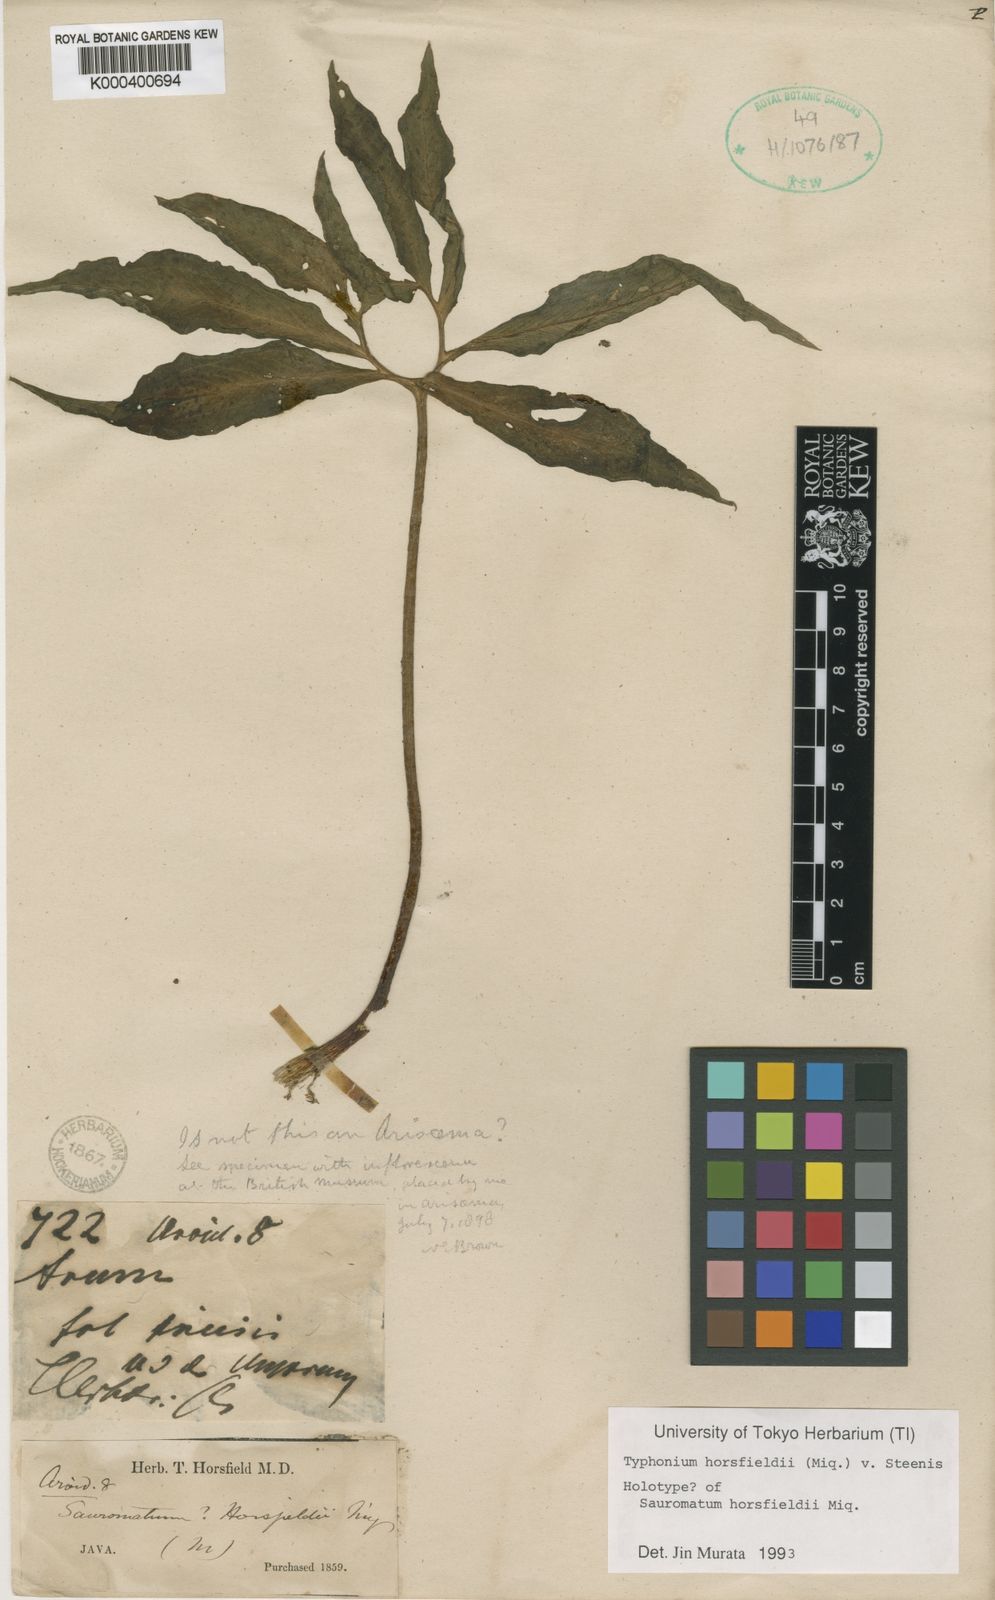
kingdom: Plantae
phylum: Tracheophyta
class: Liliopsida
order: Alismatales
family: Araceae
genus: Sauromatum
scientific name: Sauromatum horsfieldii
